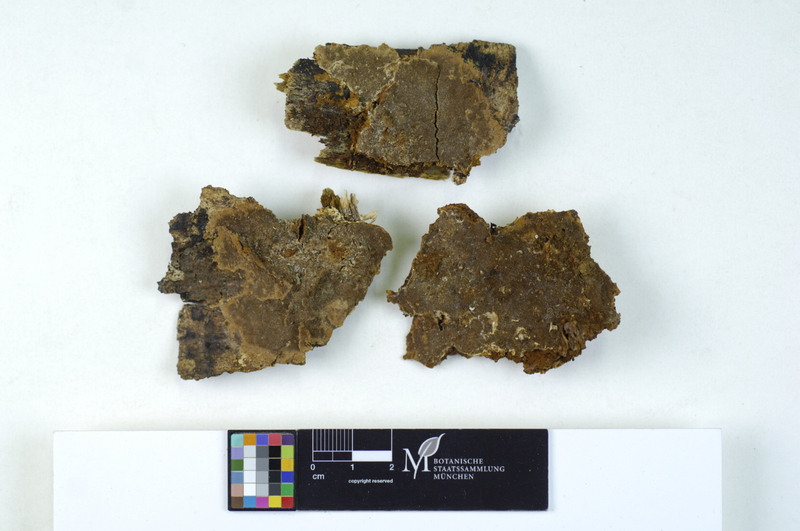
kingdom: Fungi
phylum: Basidiomycota
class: Agaricomycetes
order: Hymenochaetales
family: Hymenochaetaceae
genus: Fuscoporia
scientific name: Fuscoporia ferruginosa
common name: Rusty porecrust
